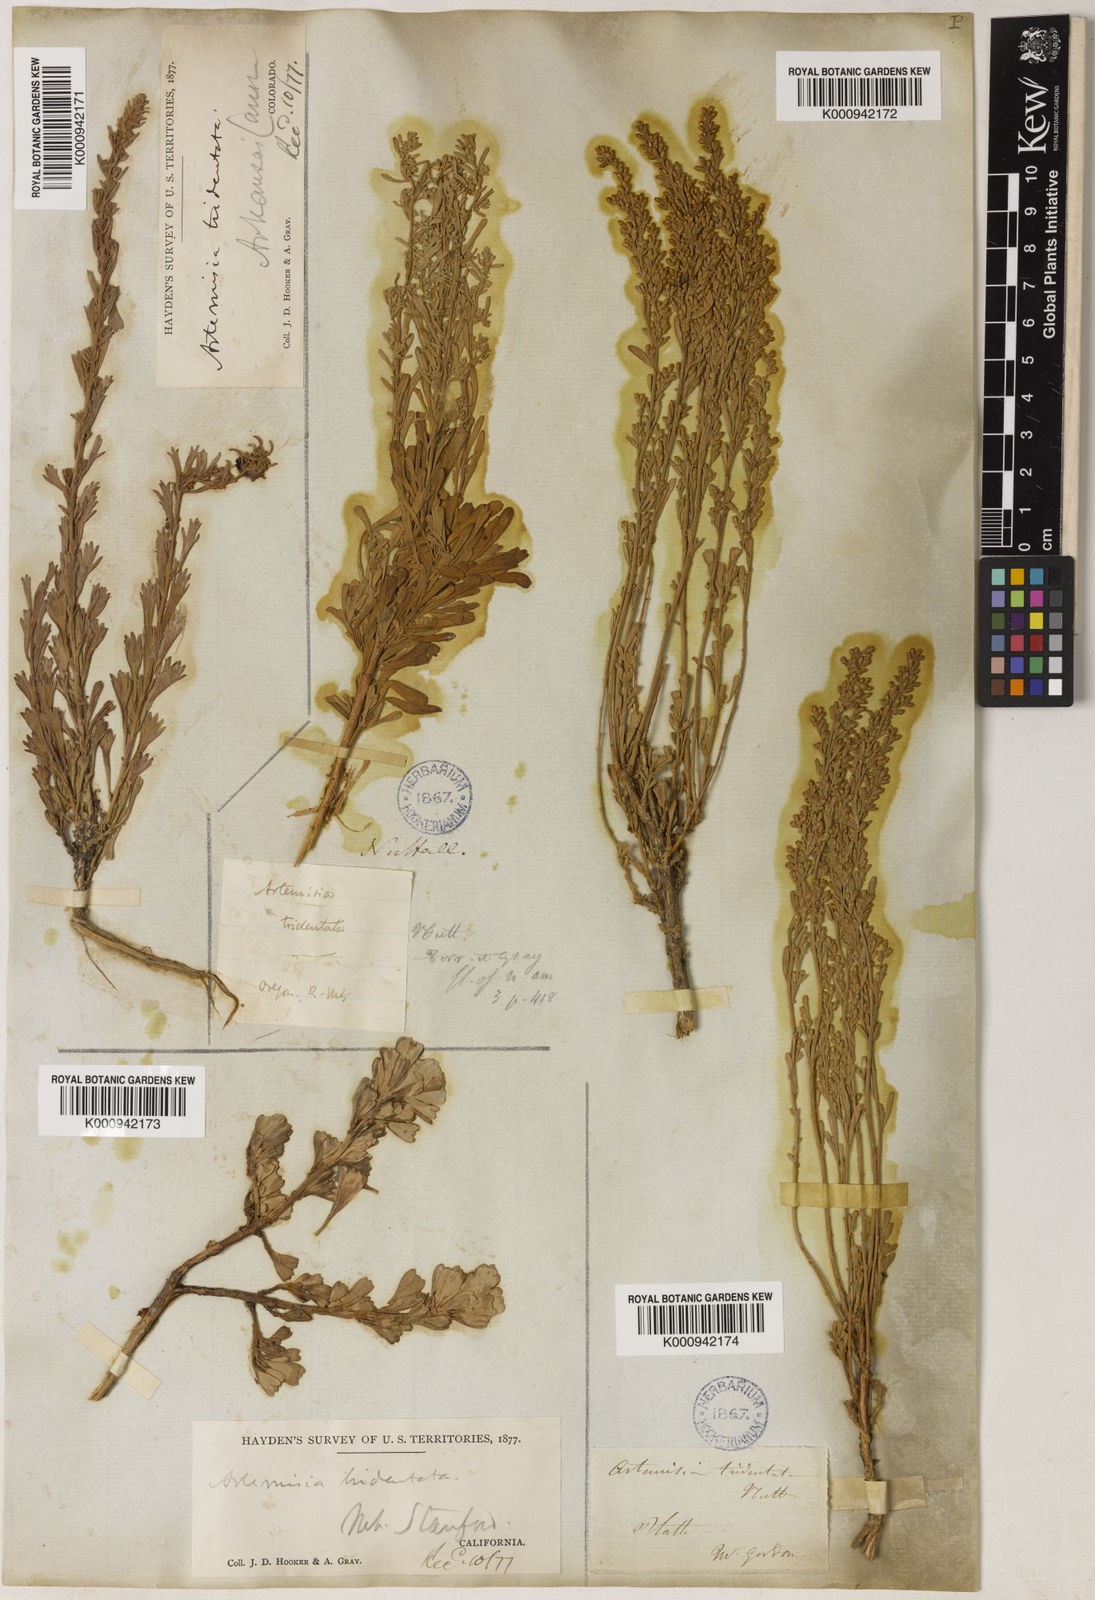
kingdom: Plantae
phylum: Tracheophyta
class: Magnoliopsida
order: Asterales
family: Asteraceae
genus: Artemisia
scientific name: Artemisia tridentata
